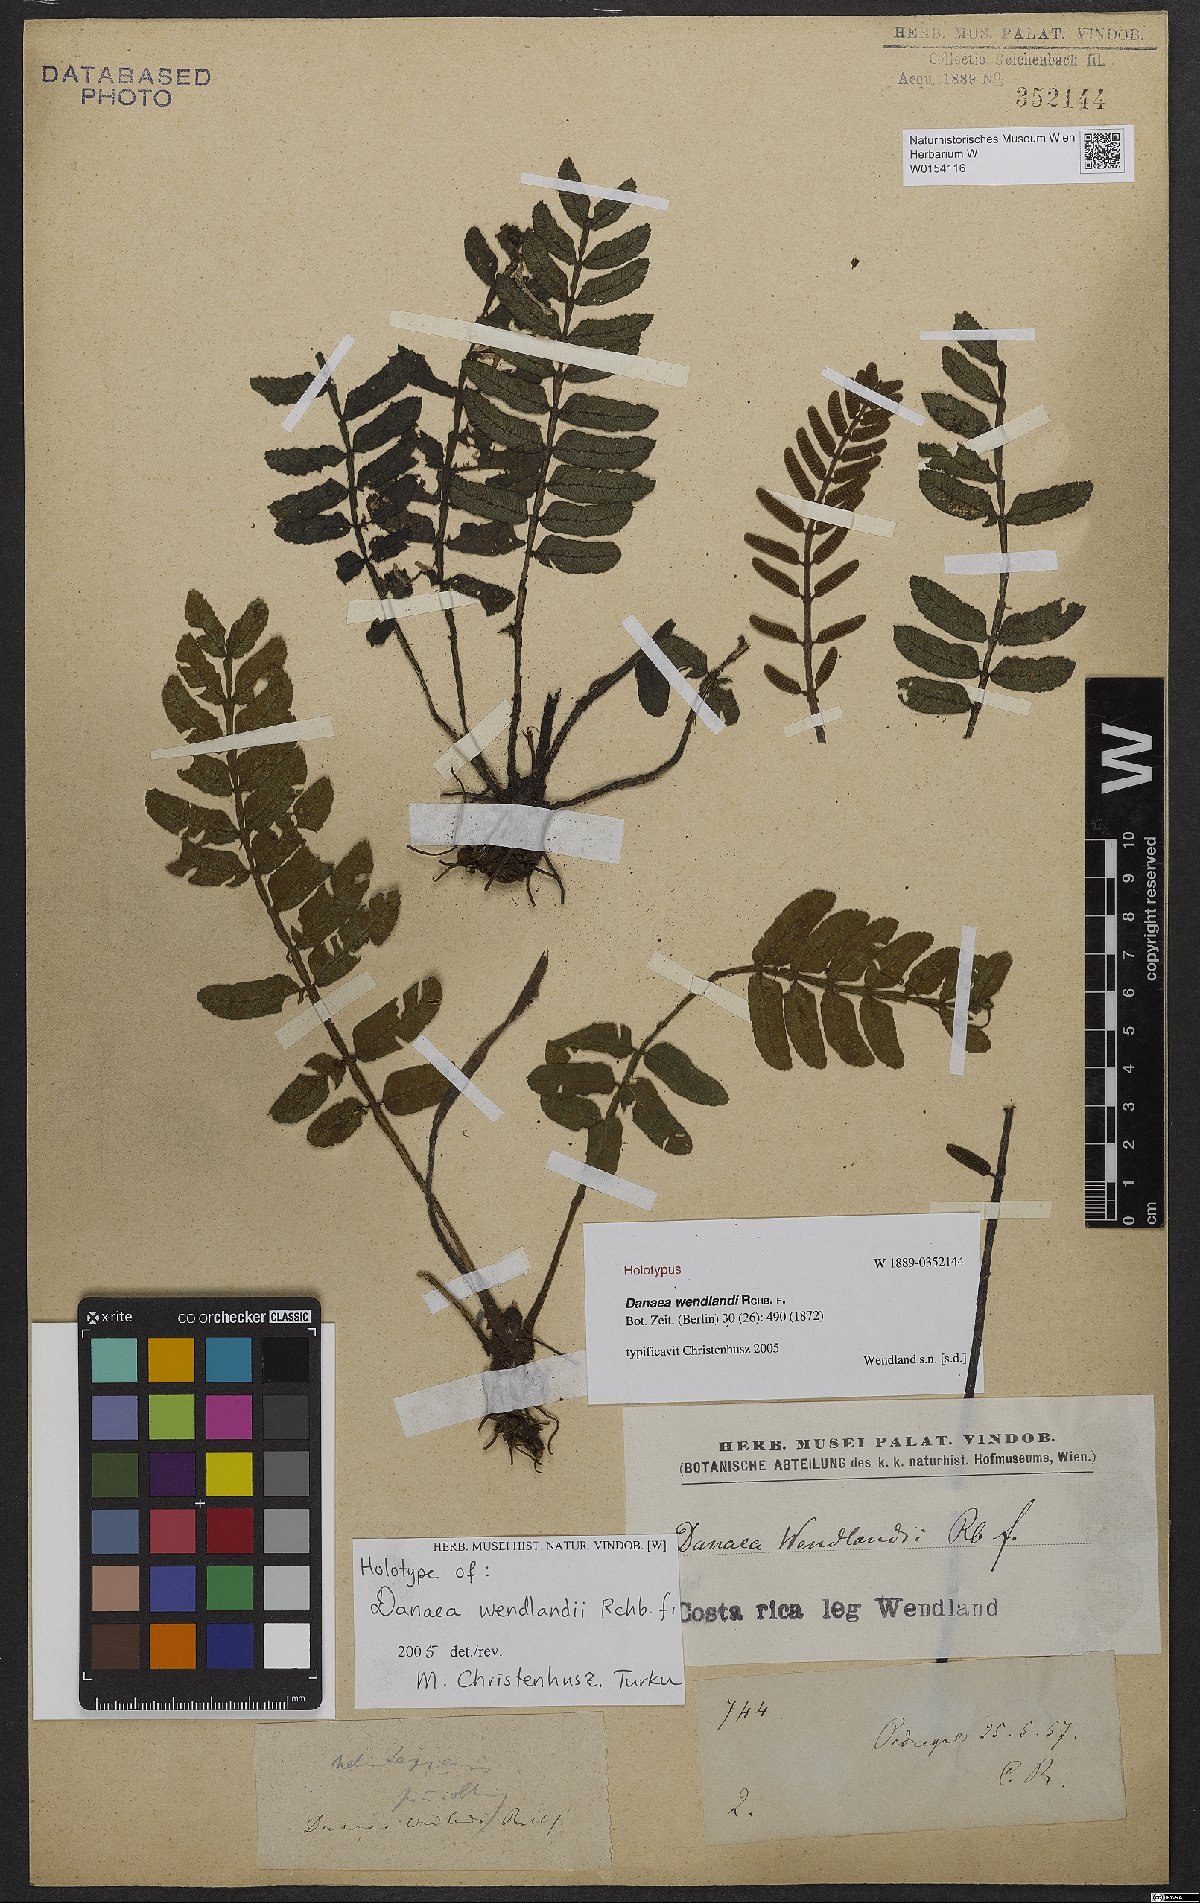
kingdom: Plantae
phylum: Tracheophyta
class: Polypodiopsida
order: Marattiales
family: Marattiaceae
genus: Danaea
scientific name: Danaea wendlandii
